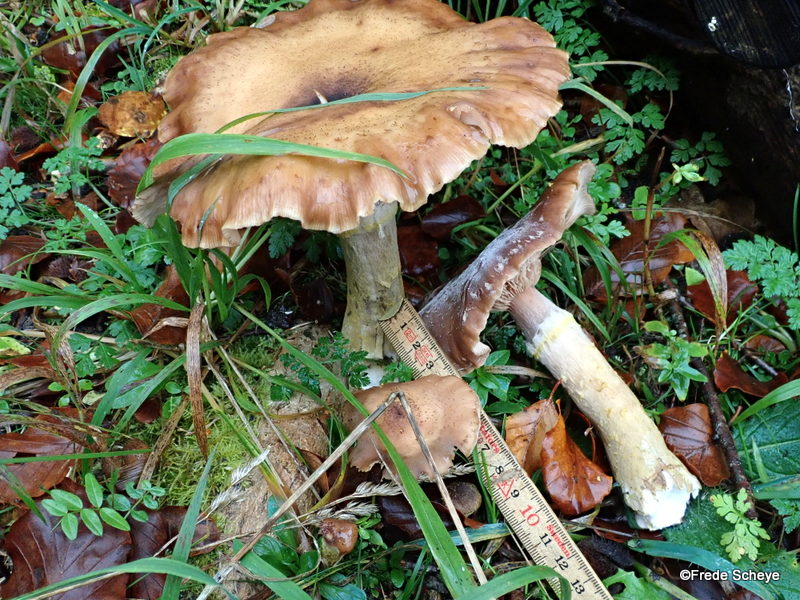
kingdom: Fungi
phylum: Basidiomycota
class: Agaricomycetes
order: Agaricales
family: Physalacriaceae
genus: Armillaria
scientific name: Armillaria lutea
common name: køllestokket honningsvamp
